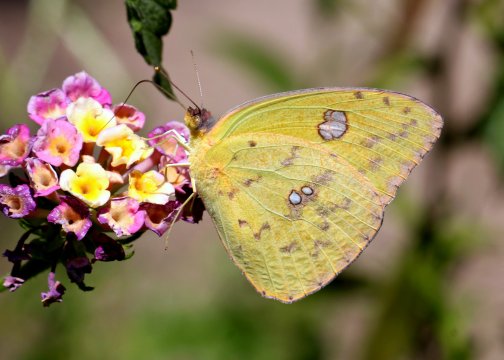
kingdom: Animalia
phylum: Arthropoda
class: Insecta
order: Lepidoptera
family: Pieridae
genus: Phoebis
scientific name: Phoebis sennae
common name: Cloudless Sulphur
